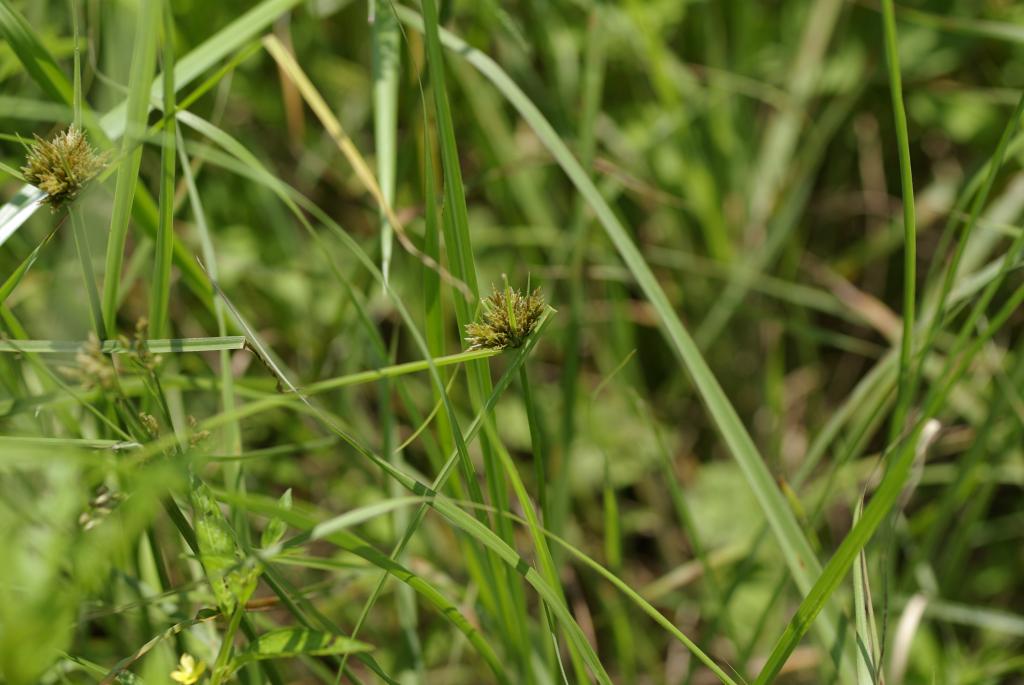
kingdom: Plantae
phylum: Tracheophyta
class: Liliopsida
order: Poales
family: Cyperaceae
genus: Cyperus
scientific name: Cyperus polystachyos
